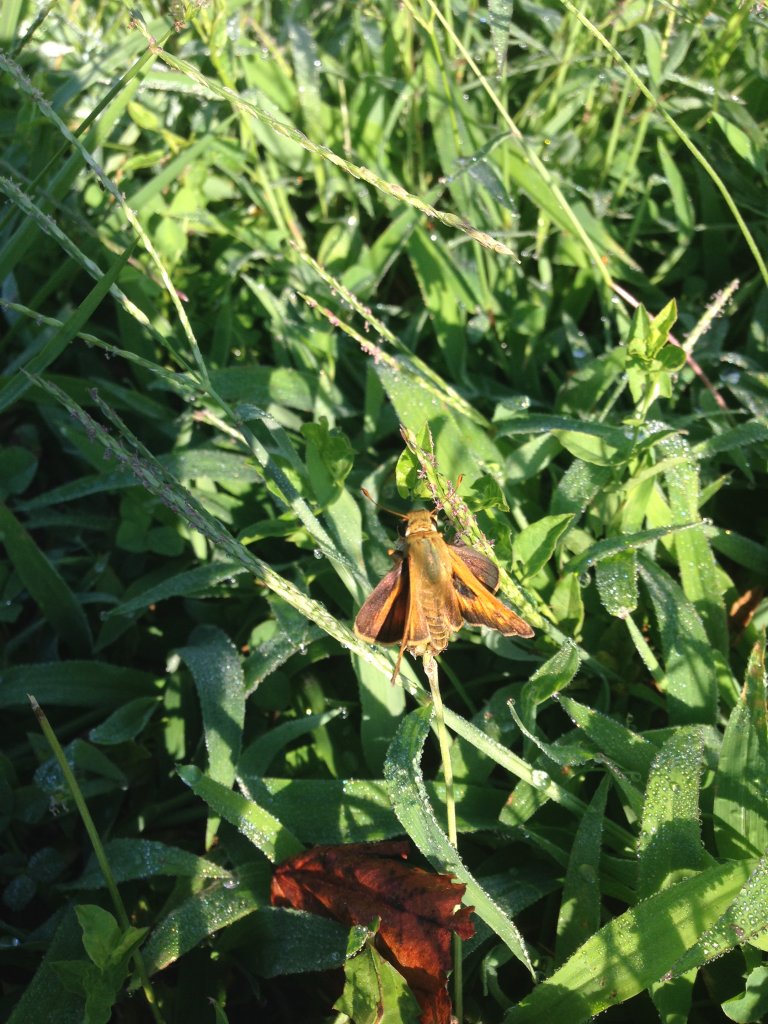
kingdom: Animalia
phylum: Arthropoda
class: Insecta
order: Lepidoptera
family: Hesperiidae
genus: Atalopedes
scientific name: Atalopedes campestris
